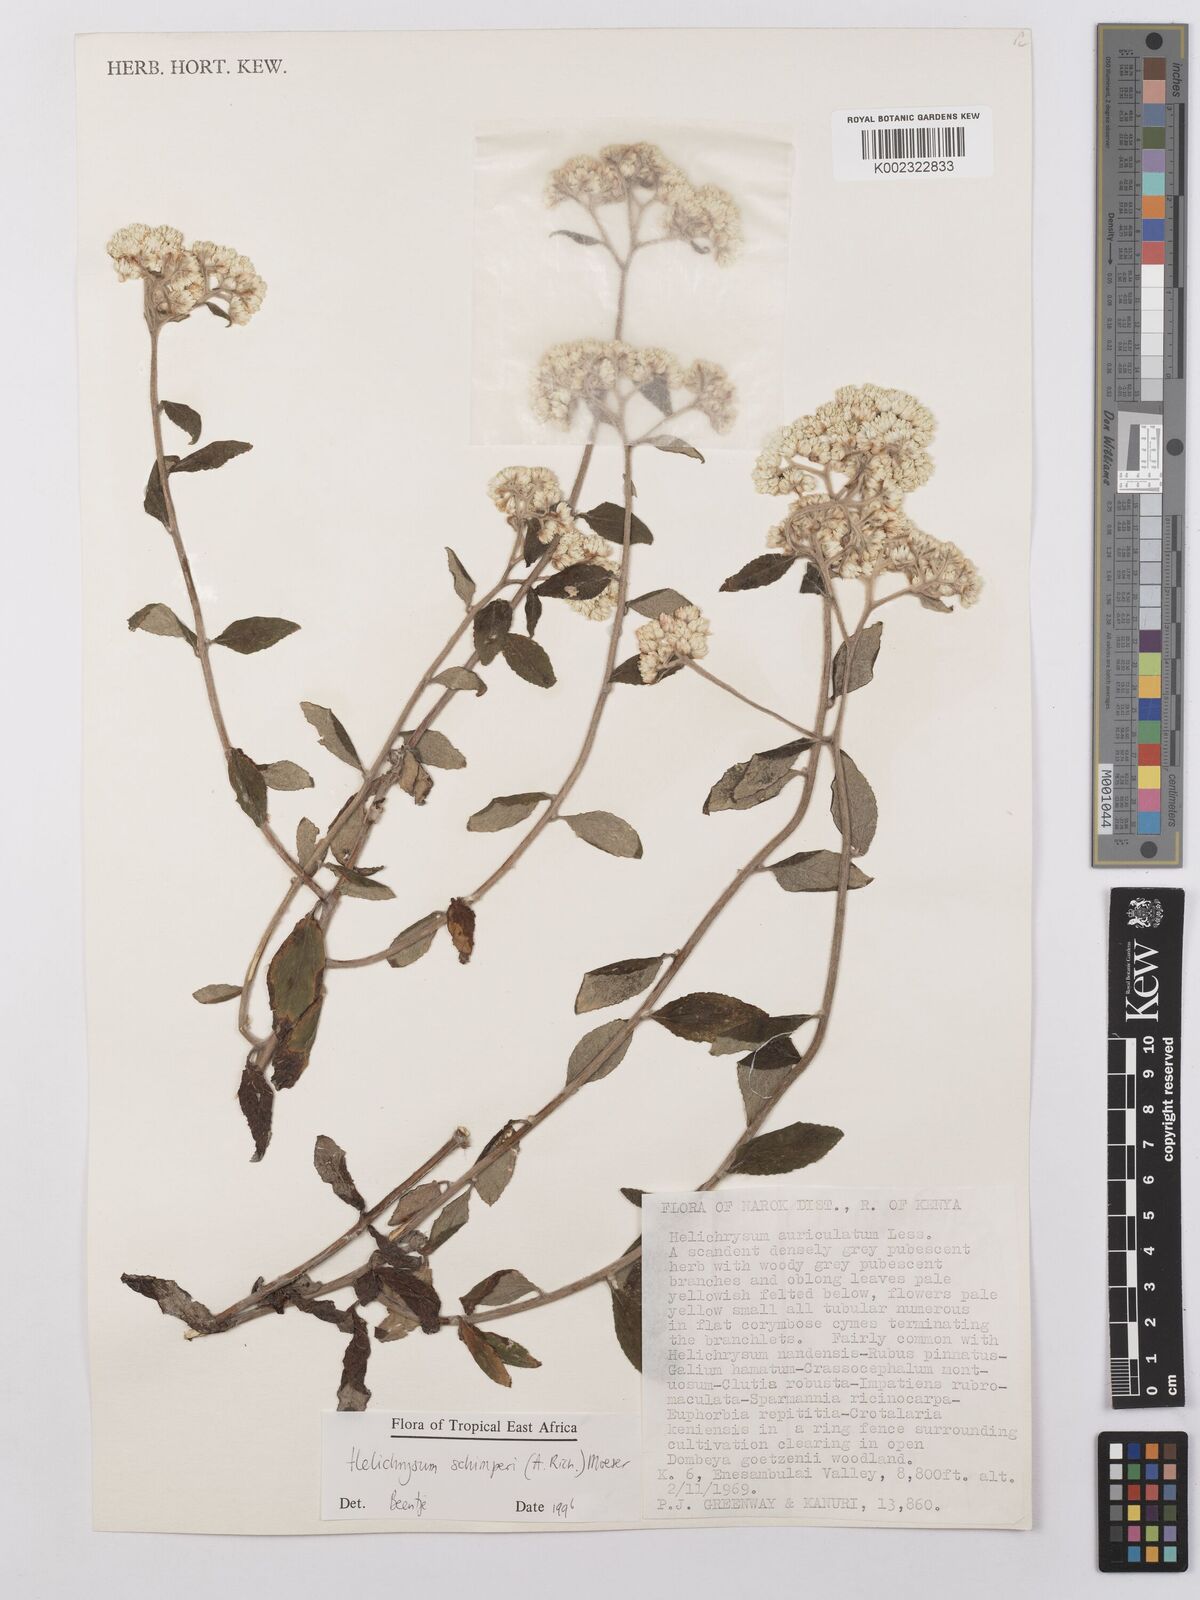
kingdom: Plantae
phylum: Tracheophyta
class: Magnoliopsida
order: Asterales
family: Asteraceae
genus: Helichrysum
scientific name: Helichrysum schimperi
